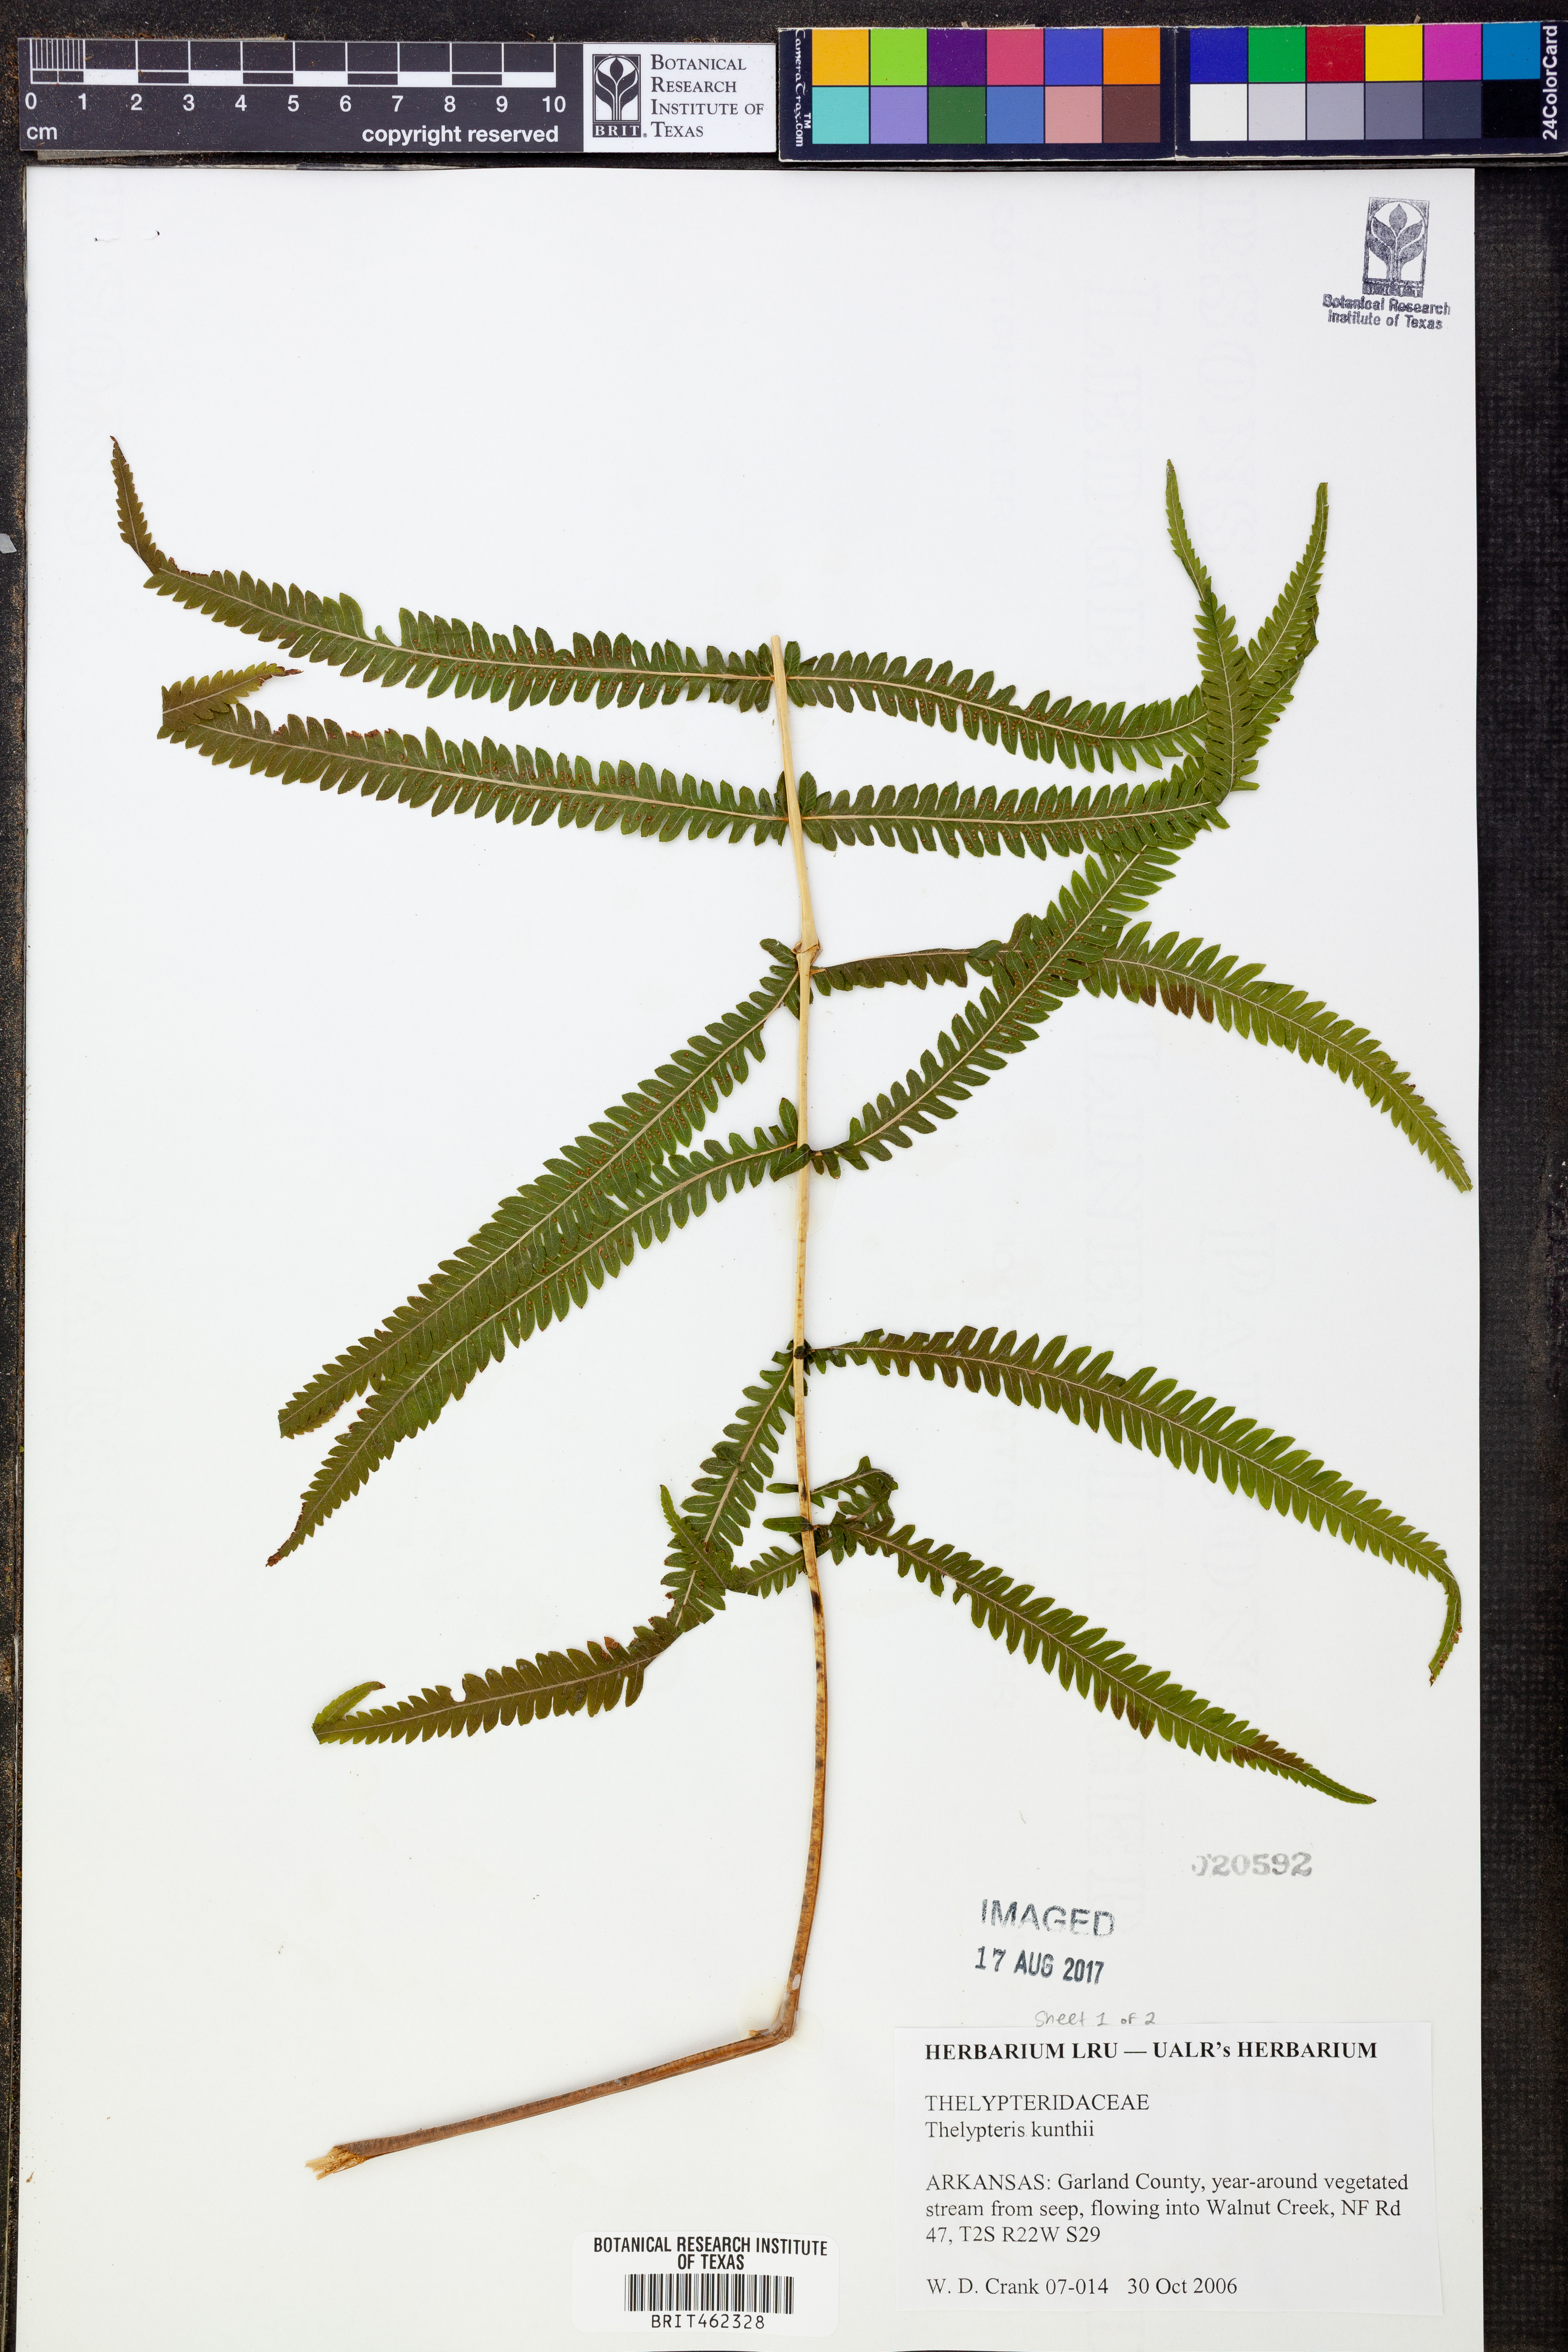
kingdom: Plantae
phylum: Tracheophyta
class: Polypodiopsida
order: Polypodiales
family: Thelypteridaceae
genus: Pelazoneuron
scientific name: Pelazoneuron kunthii
